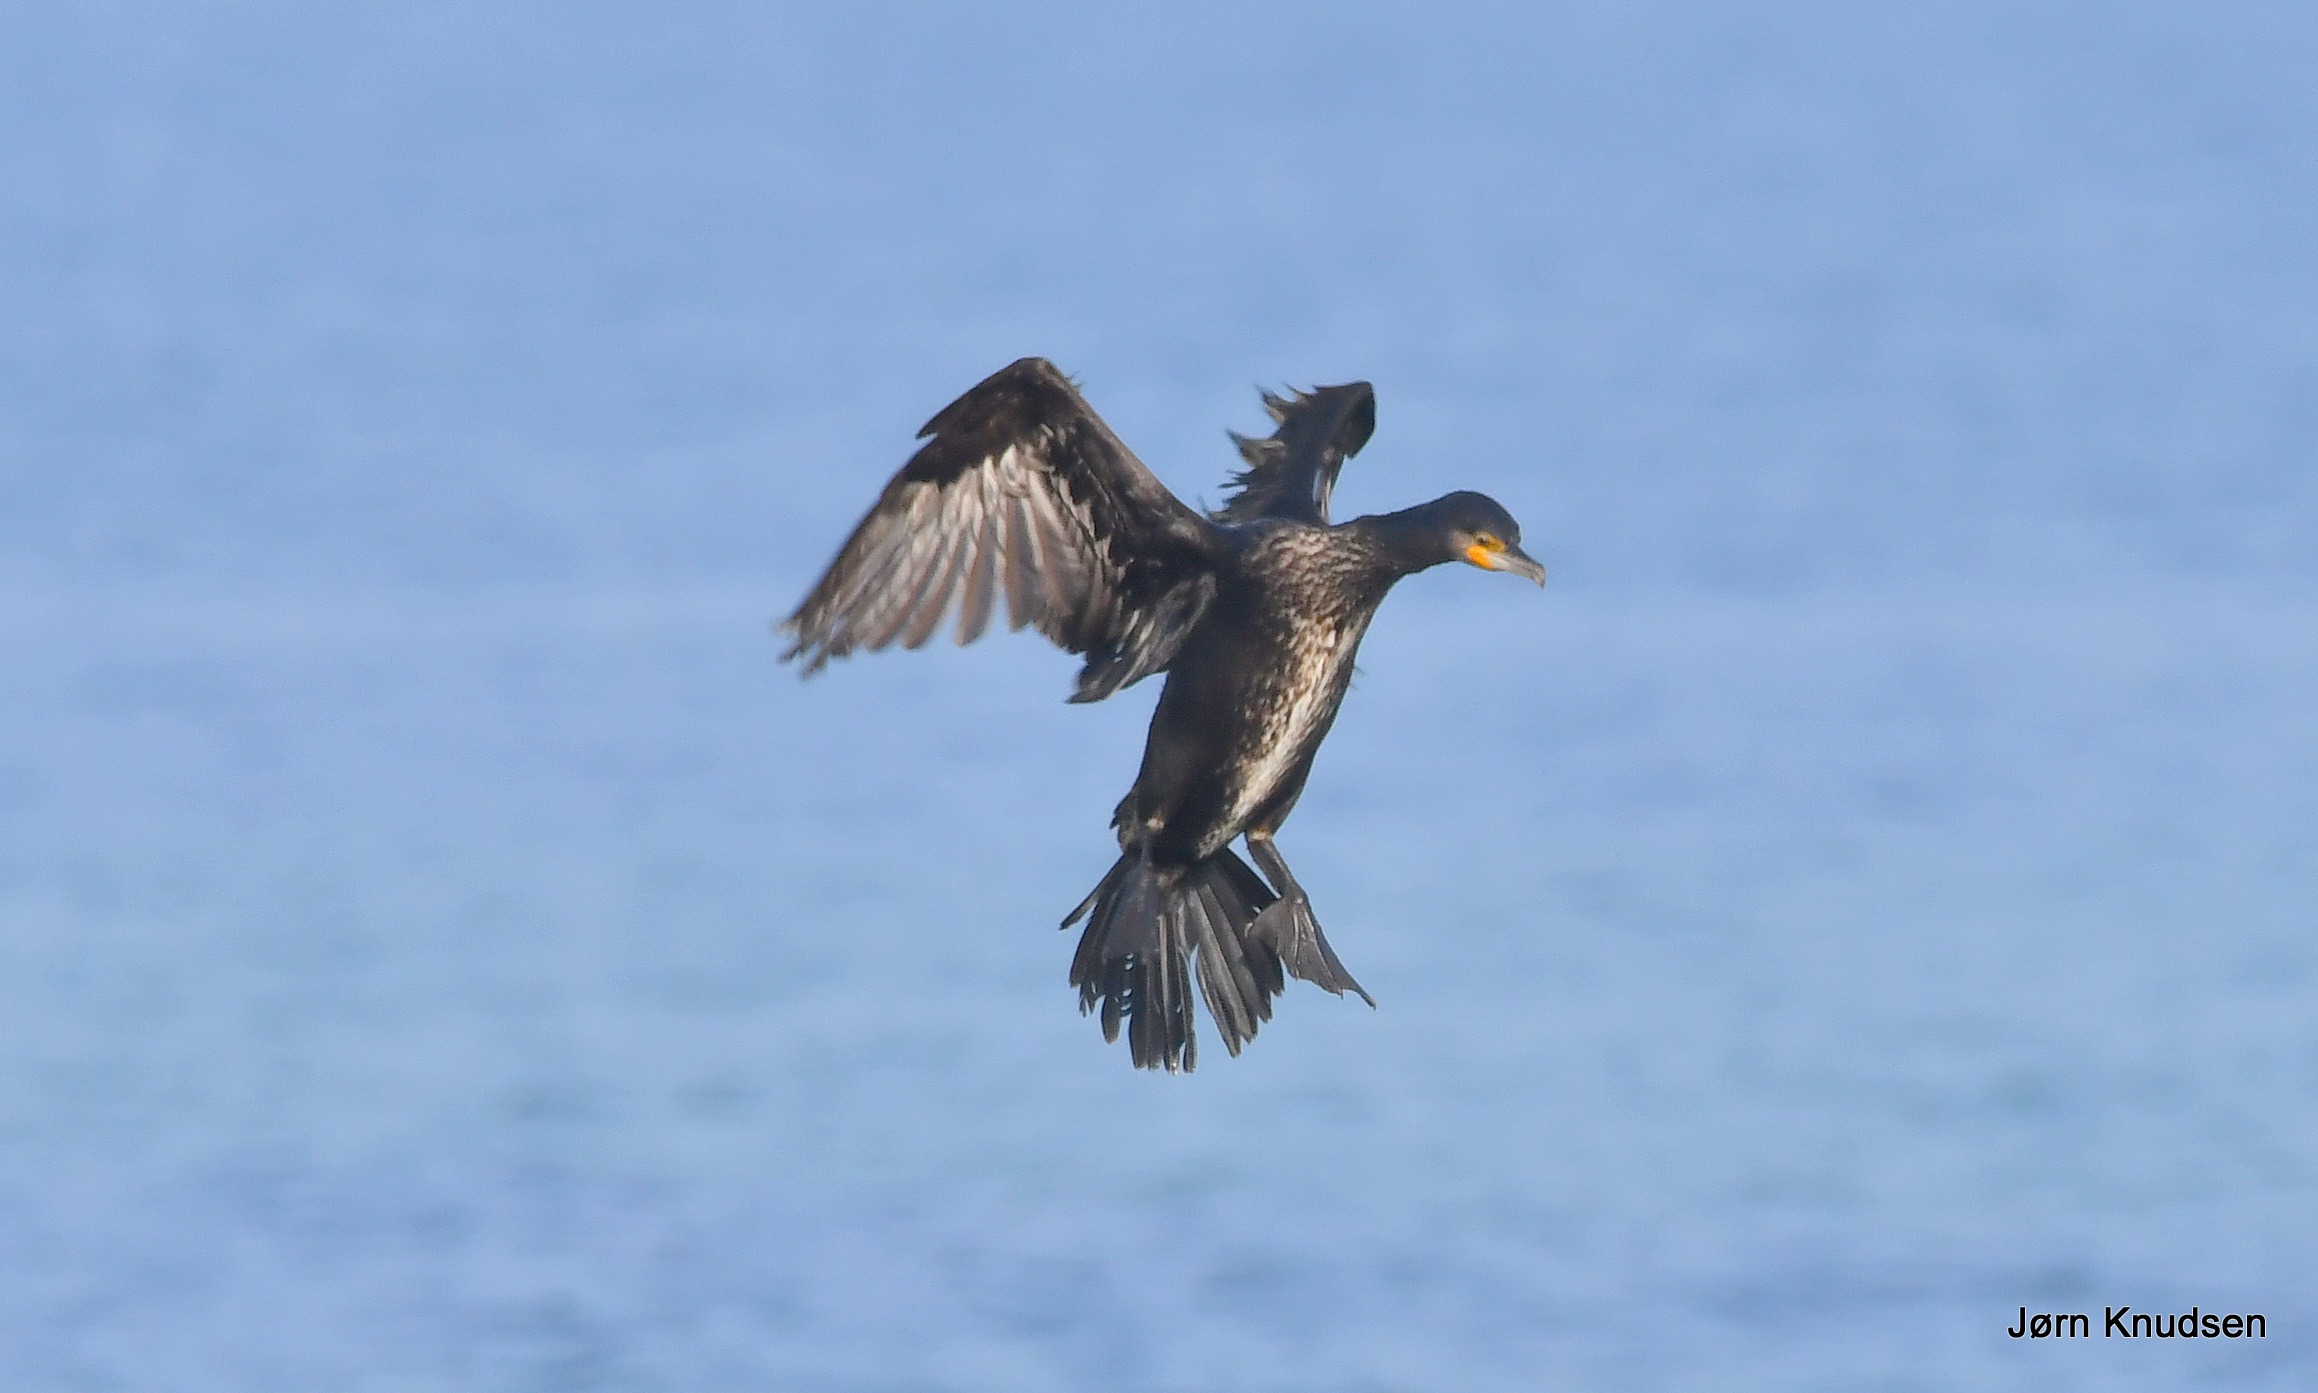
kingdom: Animalia
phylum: Chordata
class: Aves
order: Suliformes
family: Phalacrocoracidae
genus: Phalacrocorax
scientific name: Phalacrocorax carbo
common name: Skarv
